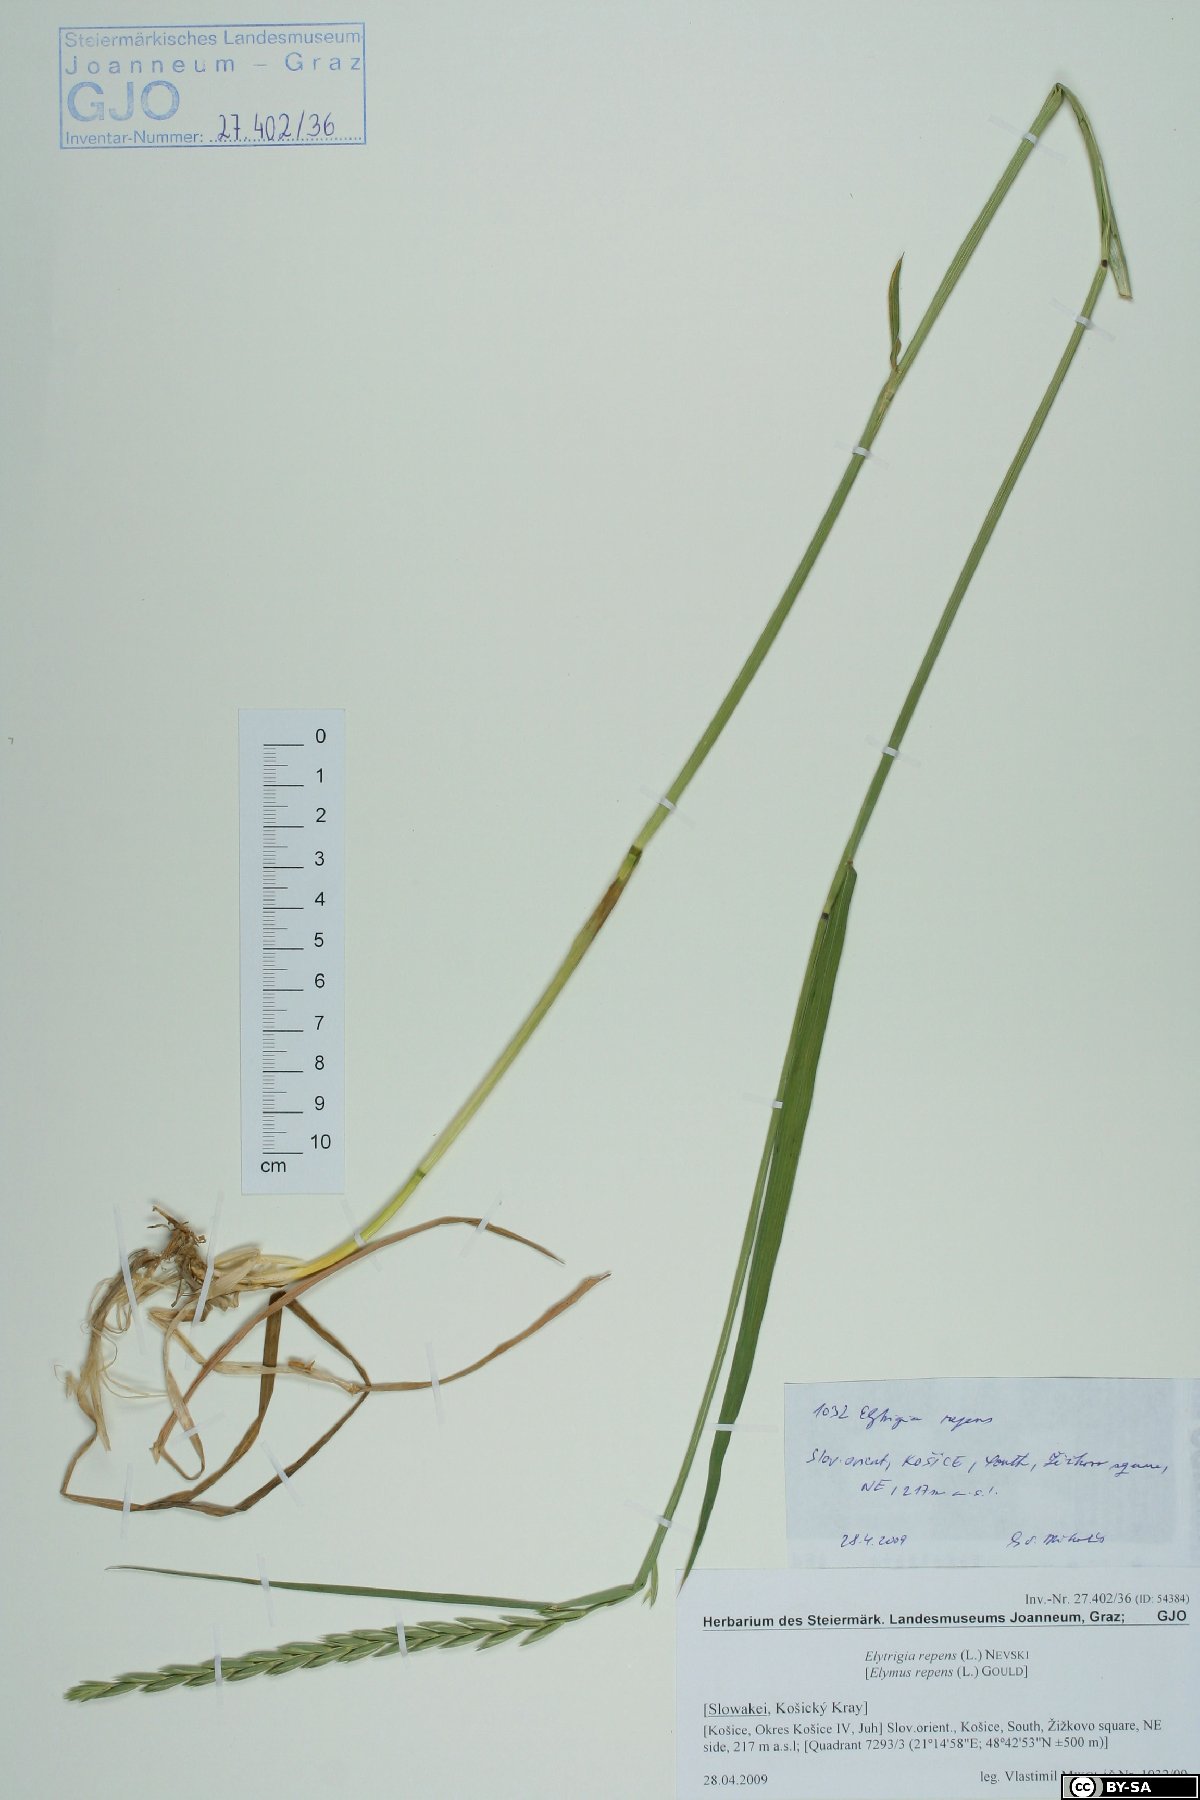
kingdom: Plantae
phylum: Tracheophyta
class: Liliopsida
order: Poales
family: Poaceae
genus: Elymus
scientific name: Elymus repens
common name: Quackgrass
